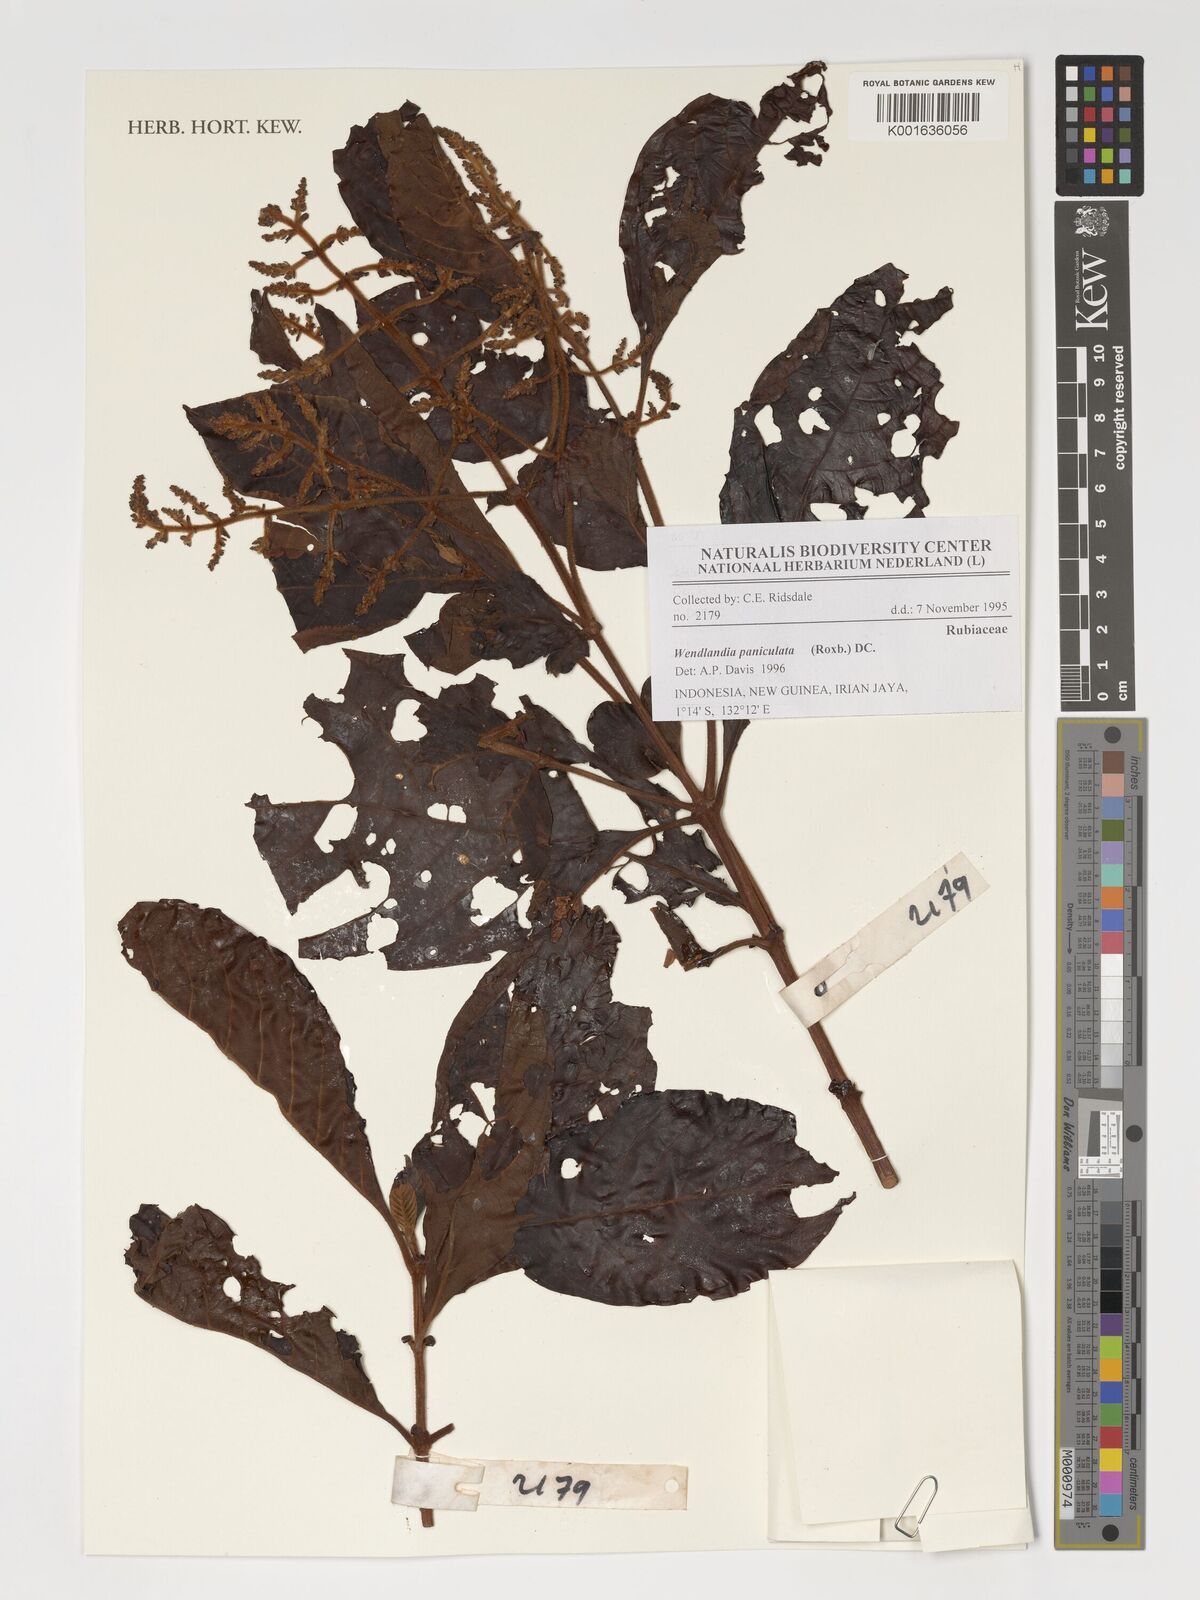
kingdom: Plantae
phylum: Tracheophyta
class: Magnoliopsida
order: Gentianales
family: Rubiaceae
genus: Wendlandia
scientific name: Wendlandia paniculata
